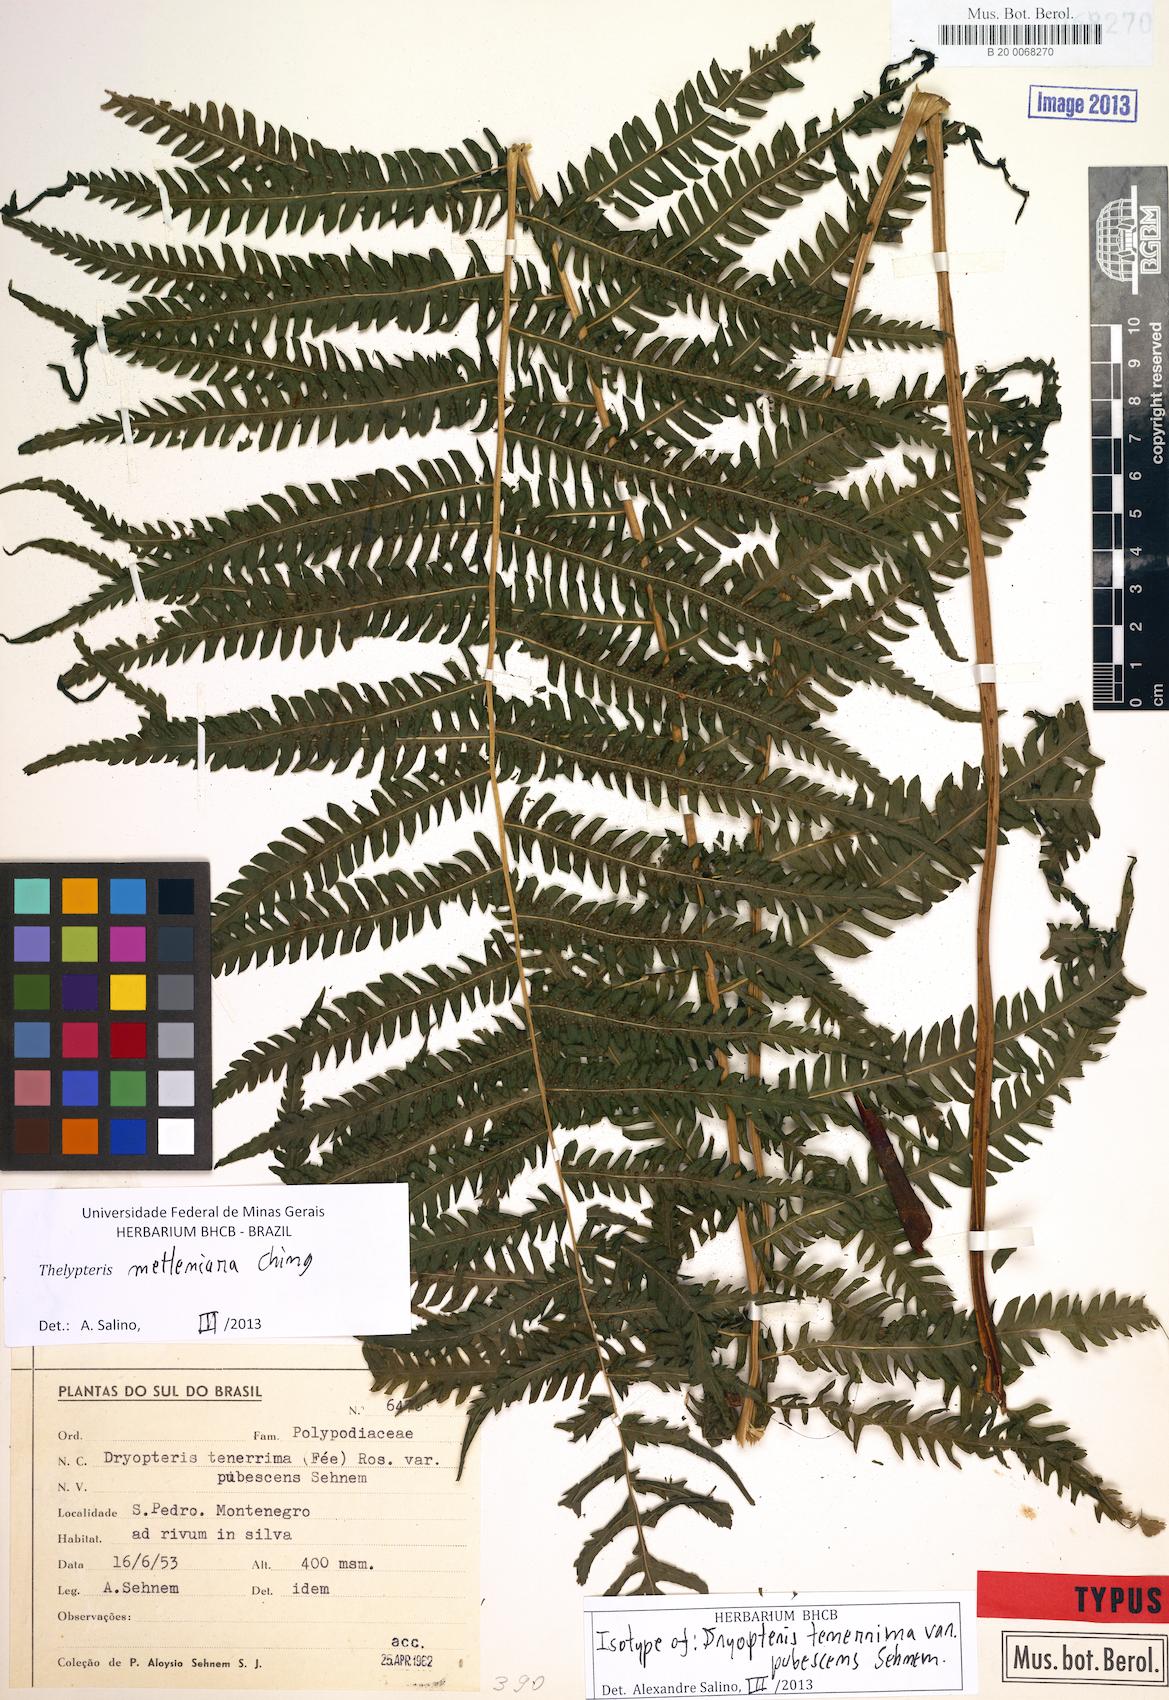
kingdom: Plantae
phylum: Tracheophyta
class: Polypodiopsida
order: Polypodiales
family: Thelypteridaceae
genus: Amauropelta
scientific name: Amauropelta metteniana
